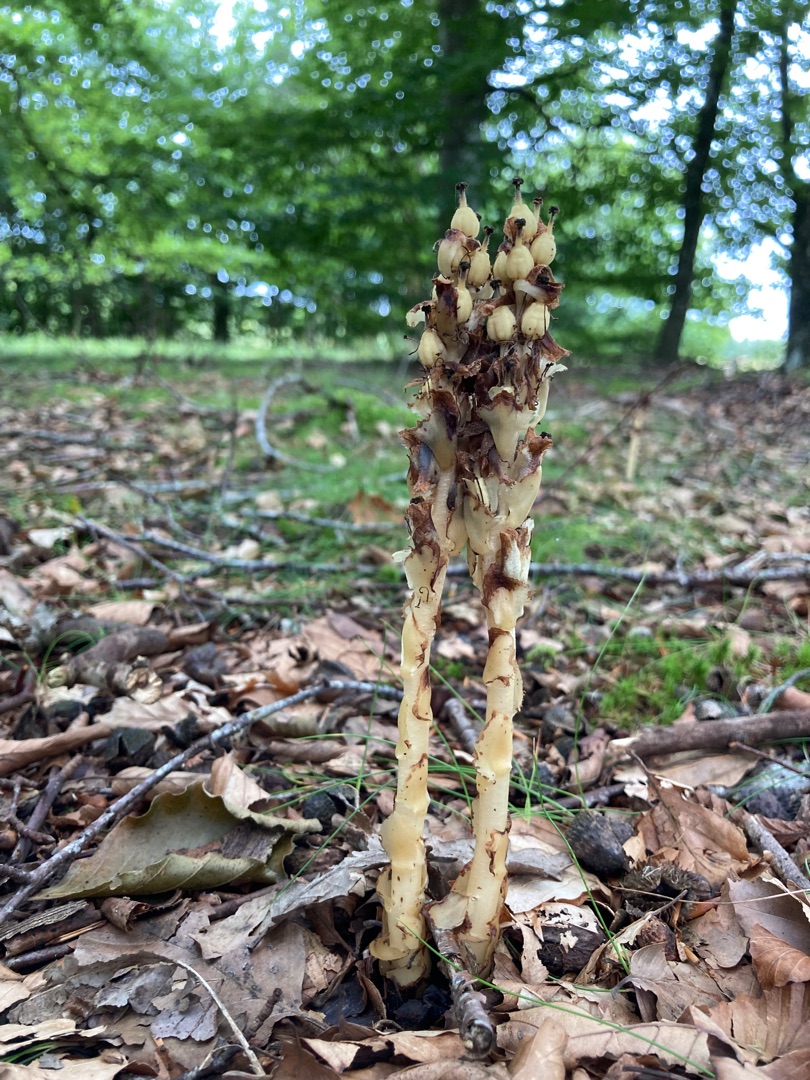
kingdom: Plantae
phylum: Tracheophyta
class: Magnoliopsida
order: Ericales
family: Ericaceae
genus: Hypopitys
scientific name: Hypopitys monotropa
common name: Håret snylterod
